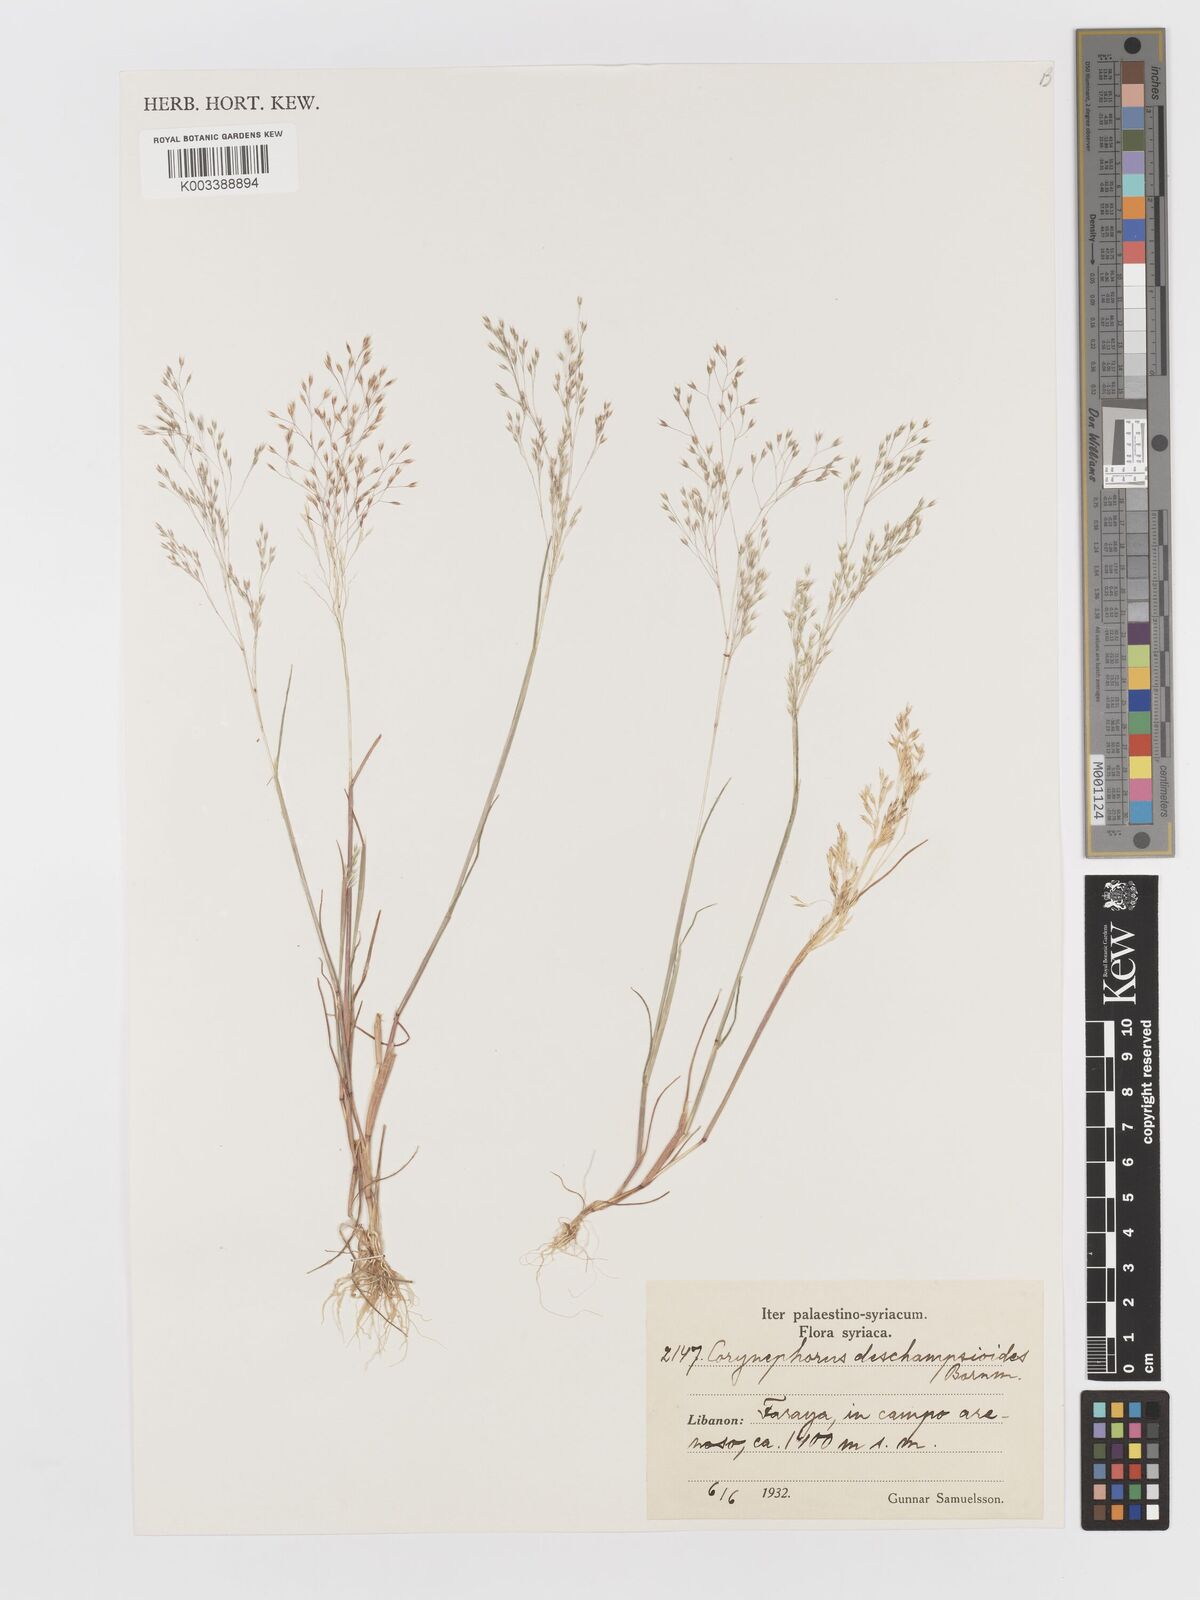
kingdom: Plantae
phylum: Tracheophyta
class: Liliopsida
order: Poales
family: Poaceae
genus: Corynephorus
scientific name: Corynephorus deschampsioides
